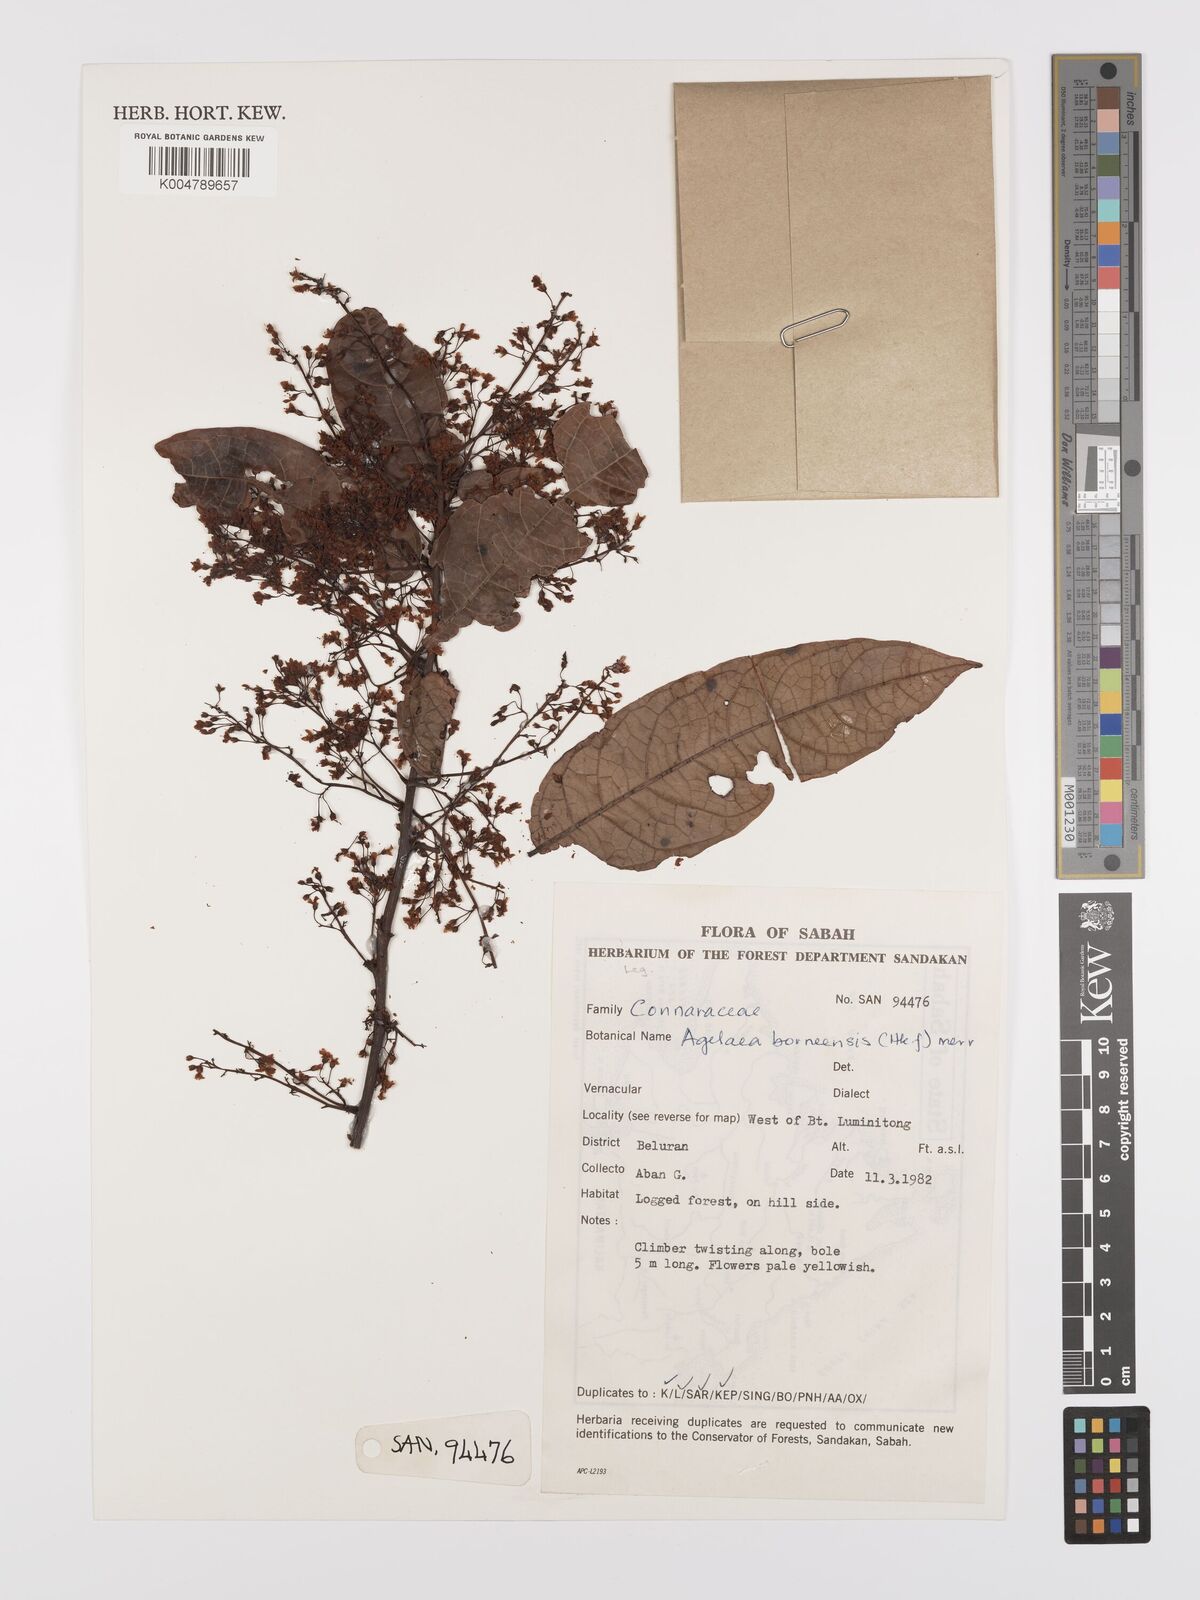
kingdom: Plantae
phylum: Tracheophyta
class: Magnoliopsida
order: Oxalidales
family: Connaraceae
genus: Agelaea
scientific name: Agelaea borneensis
